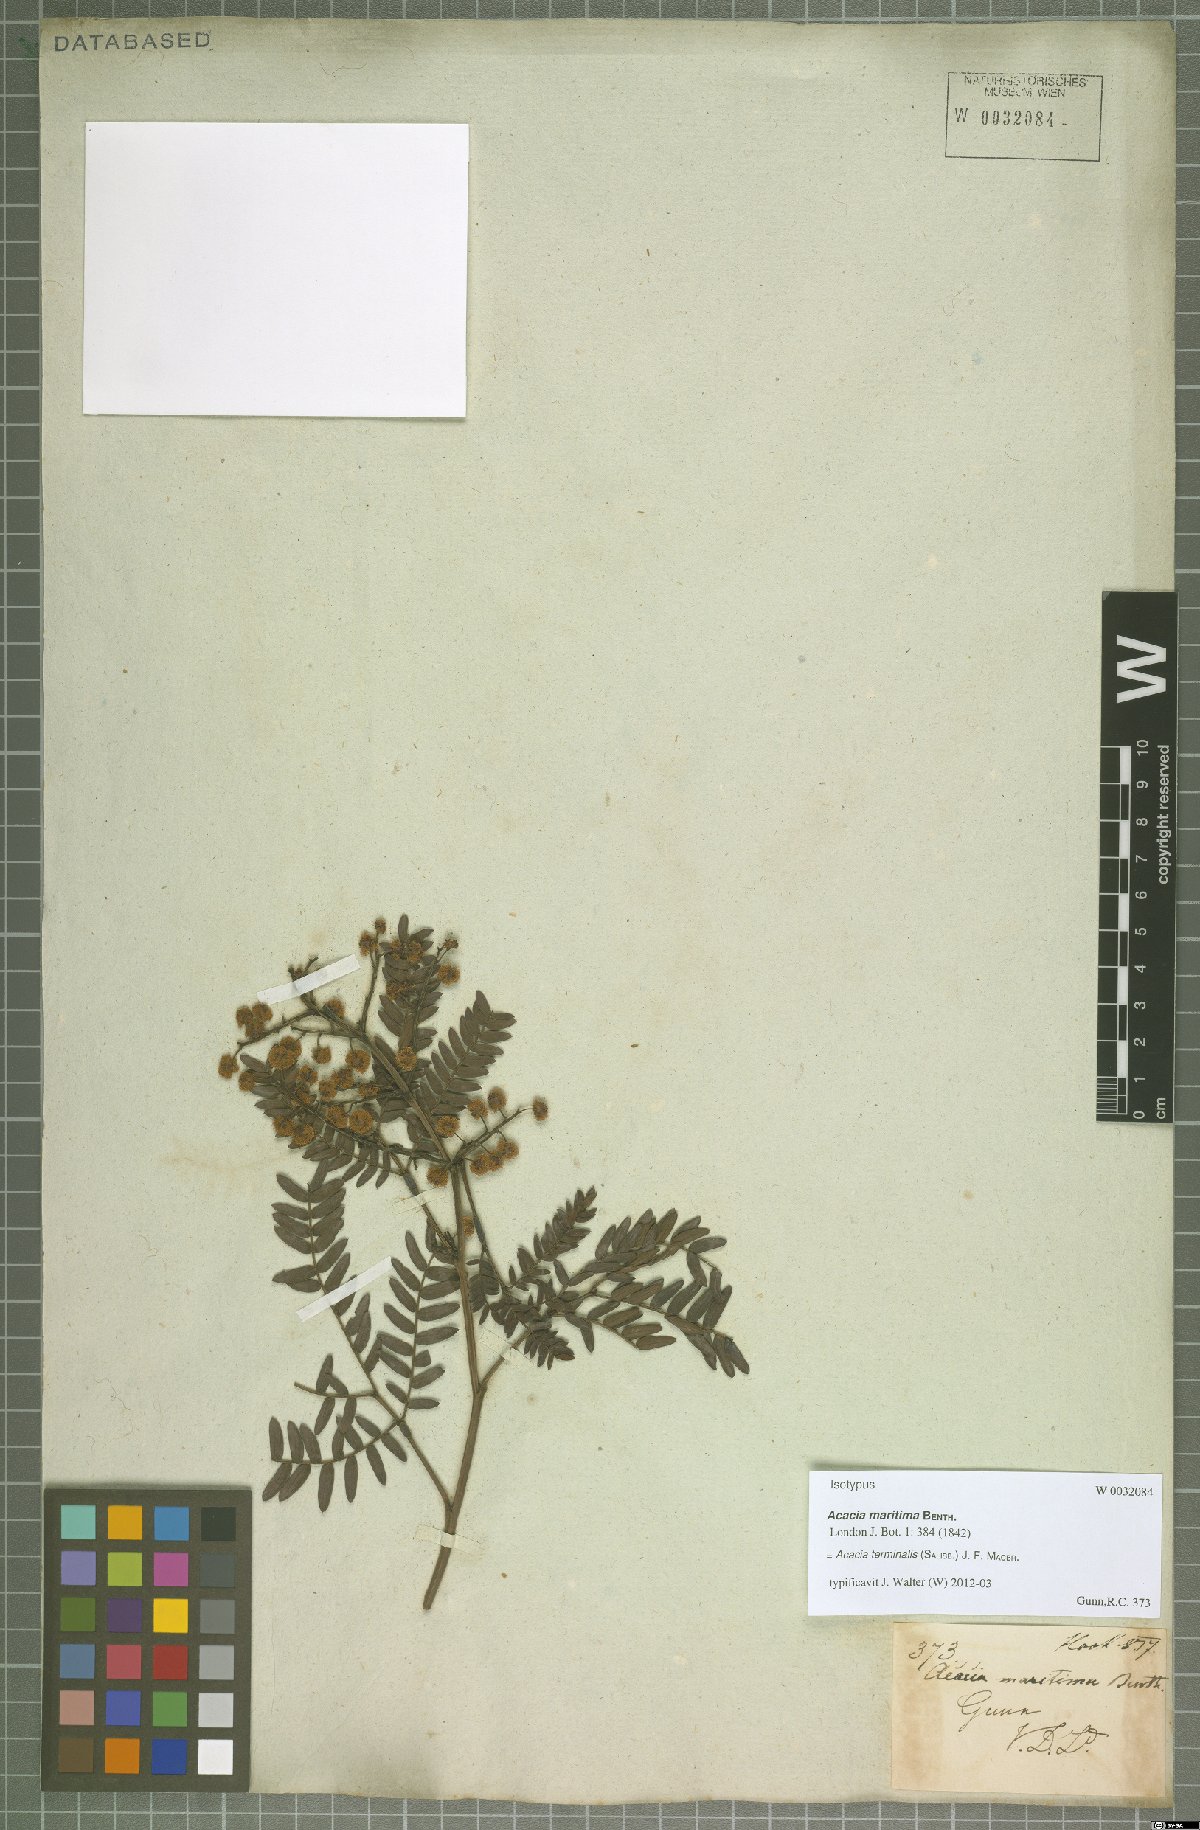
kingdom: Plantae
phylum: Tracheophyta
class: Magnoliopsida
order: Fabales
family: Fabaceae
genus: Acacia
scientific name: Acacia terminalis
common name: Cedar wattle
